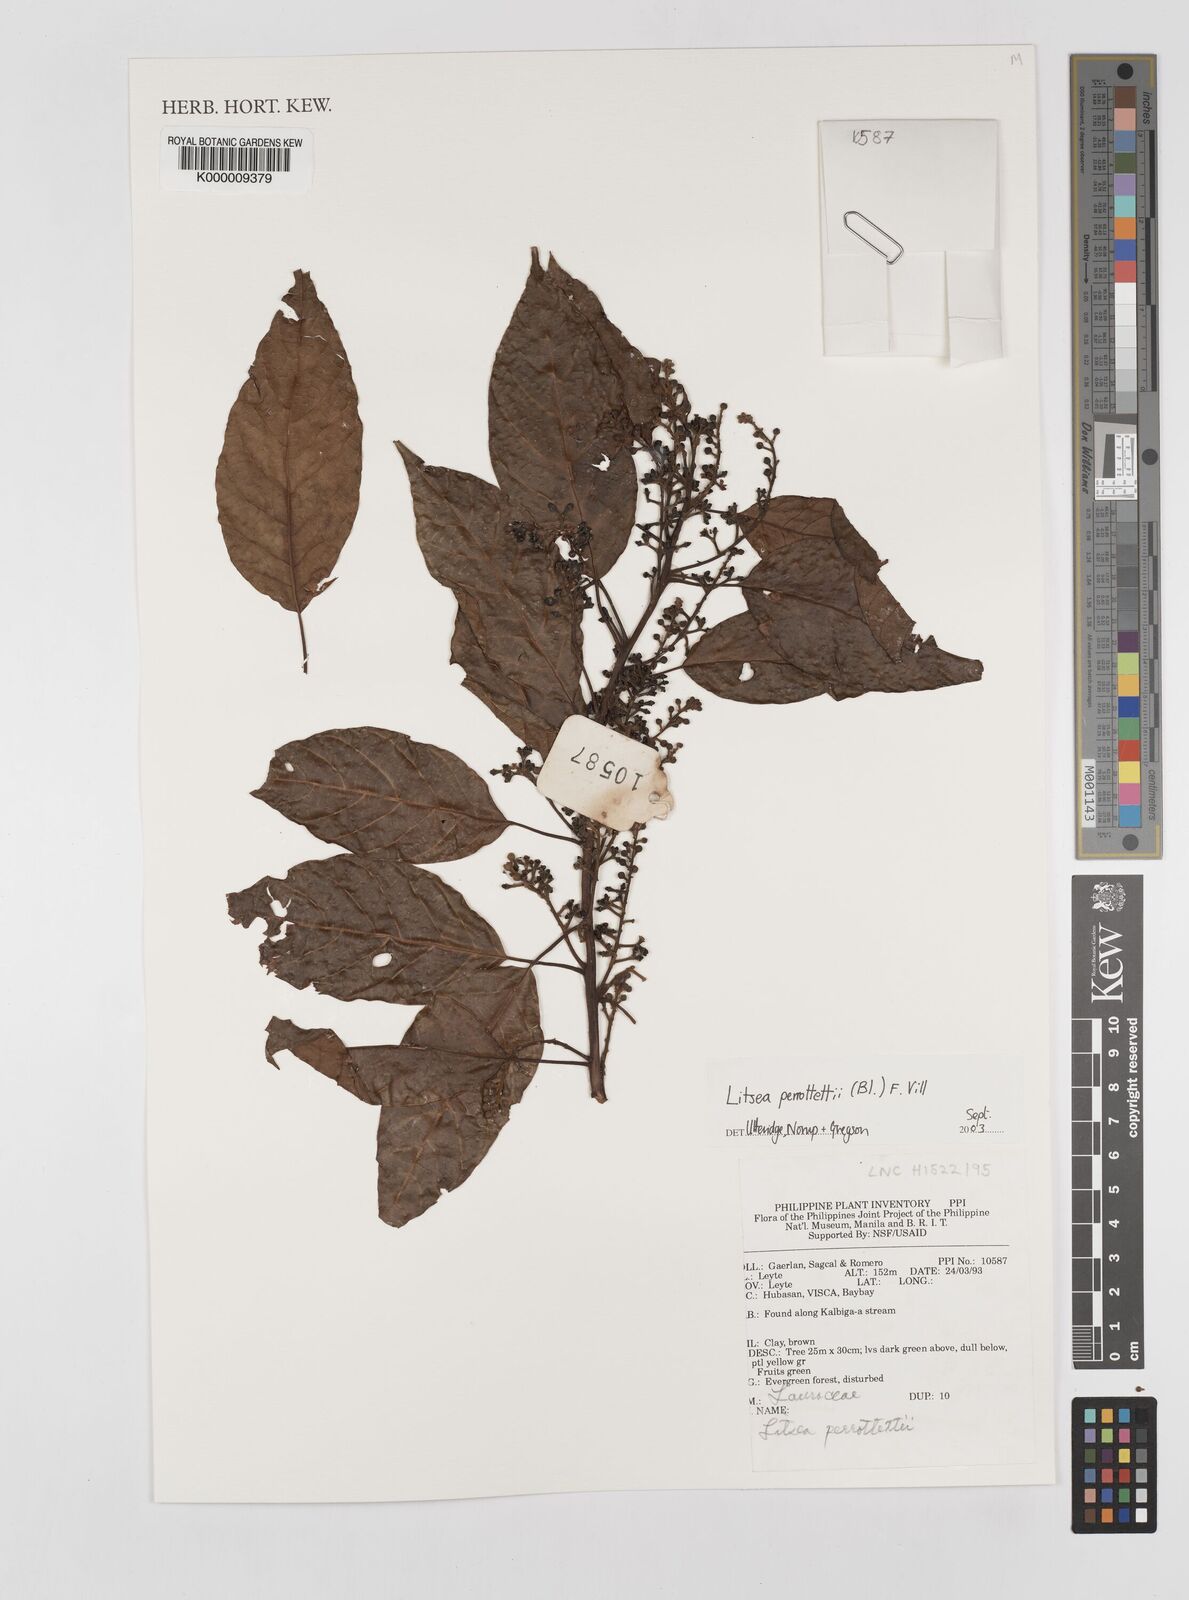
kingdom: Plantae
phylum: Tracheophyta
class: Magnoliopsida
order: Laurales
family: Lauraceae
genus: Litsea
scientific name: Litsea cordata
